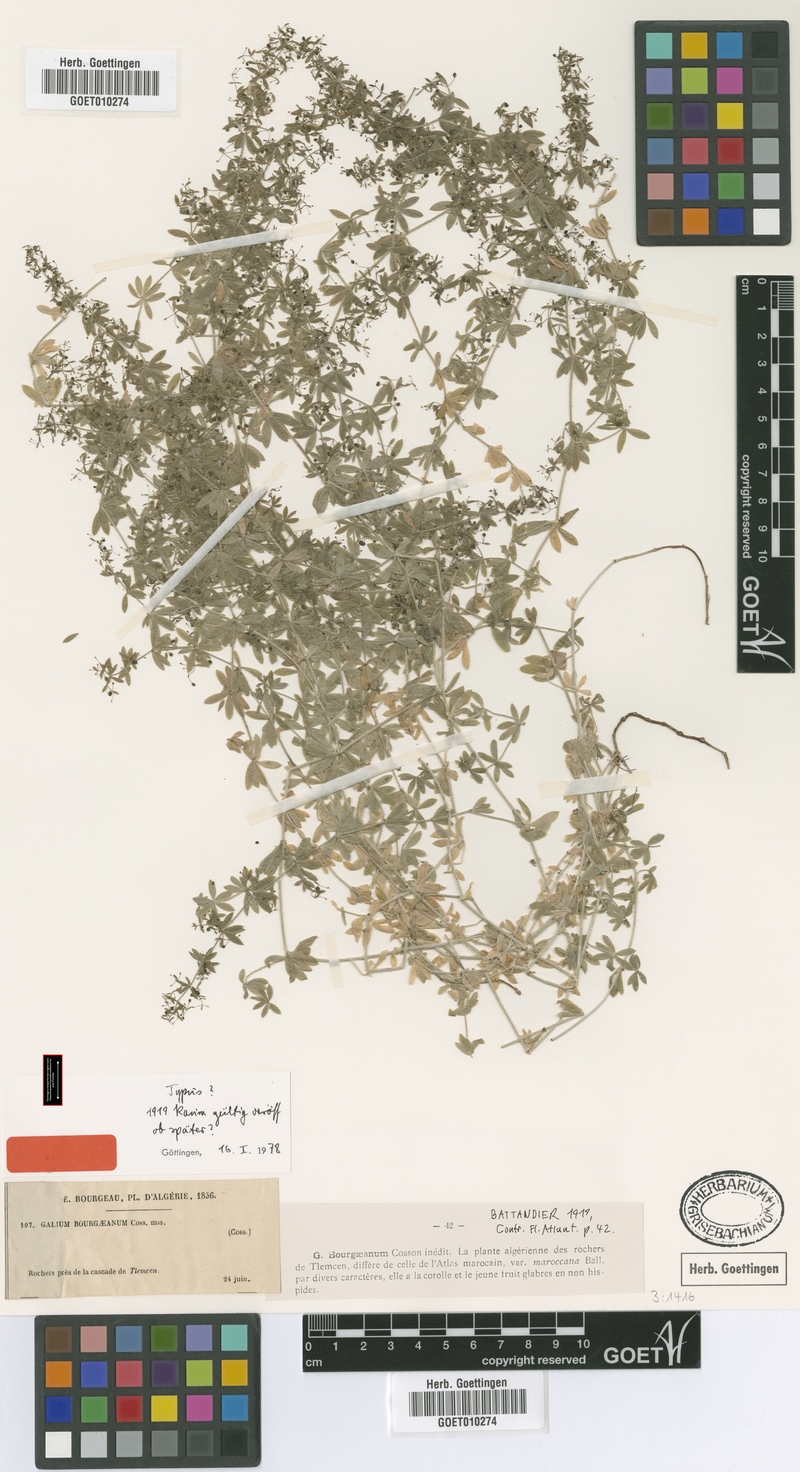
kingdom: Plantae
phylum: Tracheophyta
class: Magnoliopsida
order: Gentianales
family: Rubiaceae
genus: Galium
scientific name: Galium bourgaeanum
